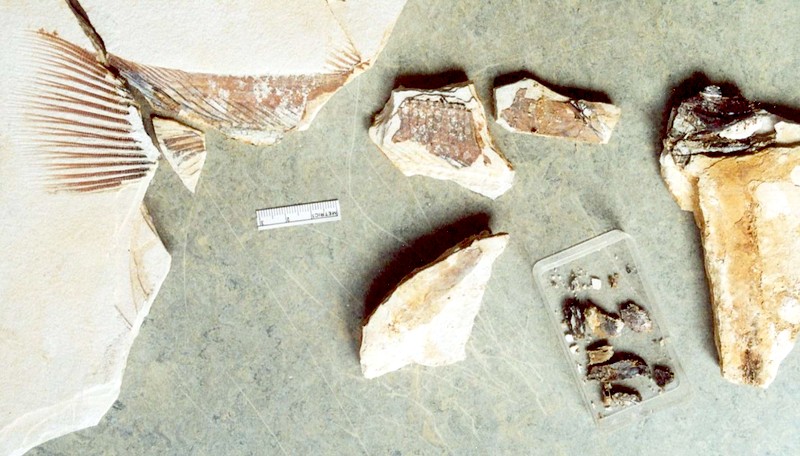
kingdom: Animalia
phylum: Chordata
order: Amiiformes
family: Amiidae
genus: Amiopsis
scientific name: Amiopsis lepidota
